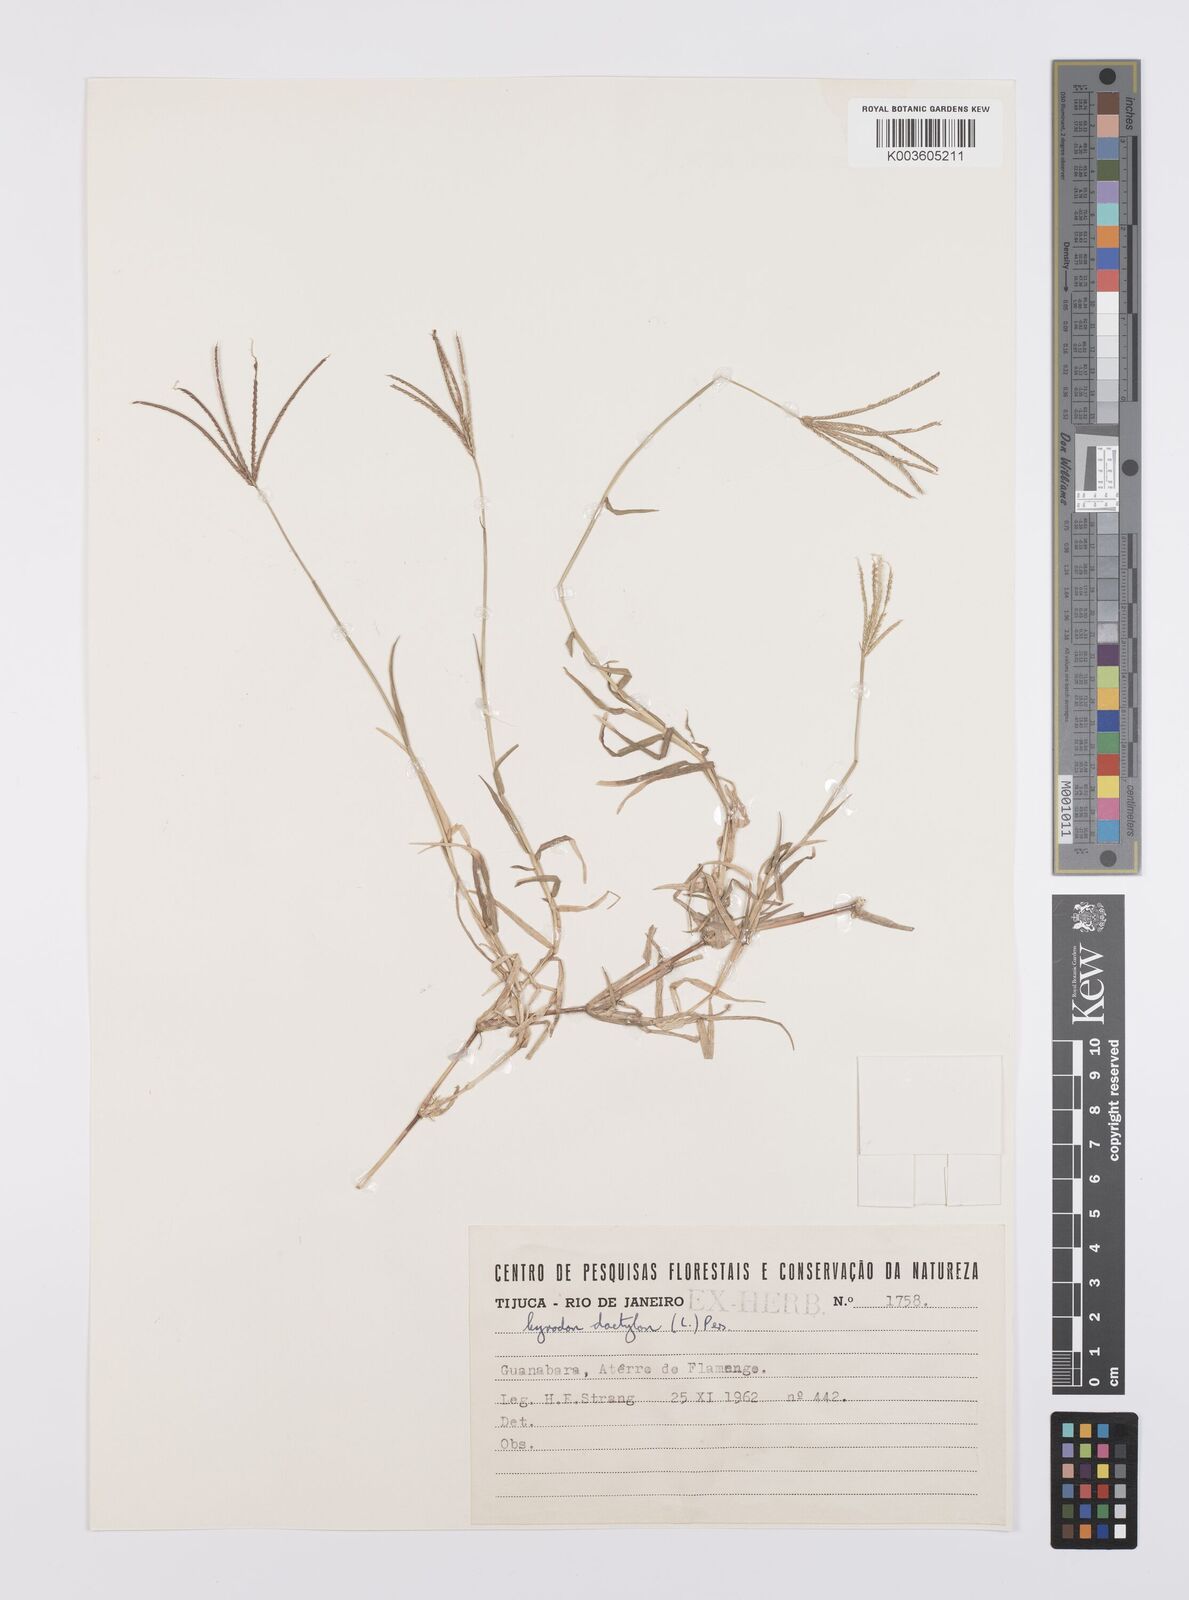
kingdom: Plantae
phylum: Tracheophyta
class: Liliopsida
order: Poales
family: Poaceae
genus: Cynodon
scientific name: Cynodon dactylon
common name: Bermuda grass
